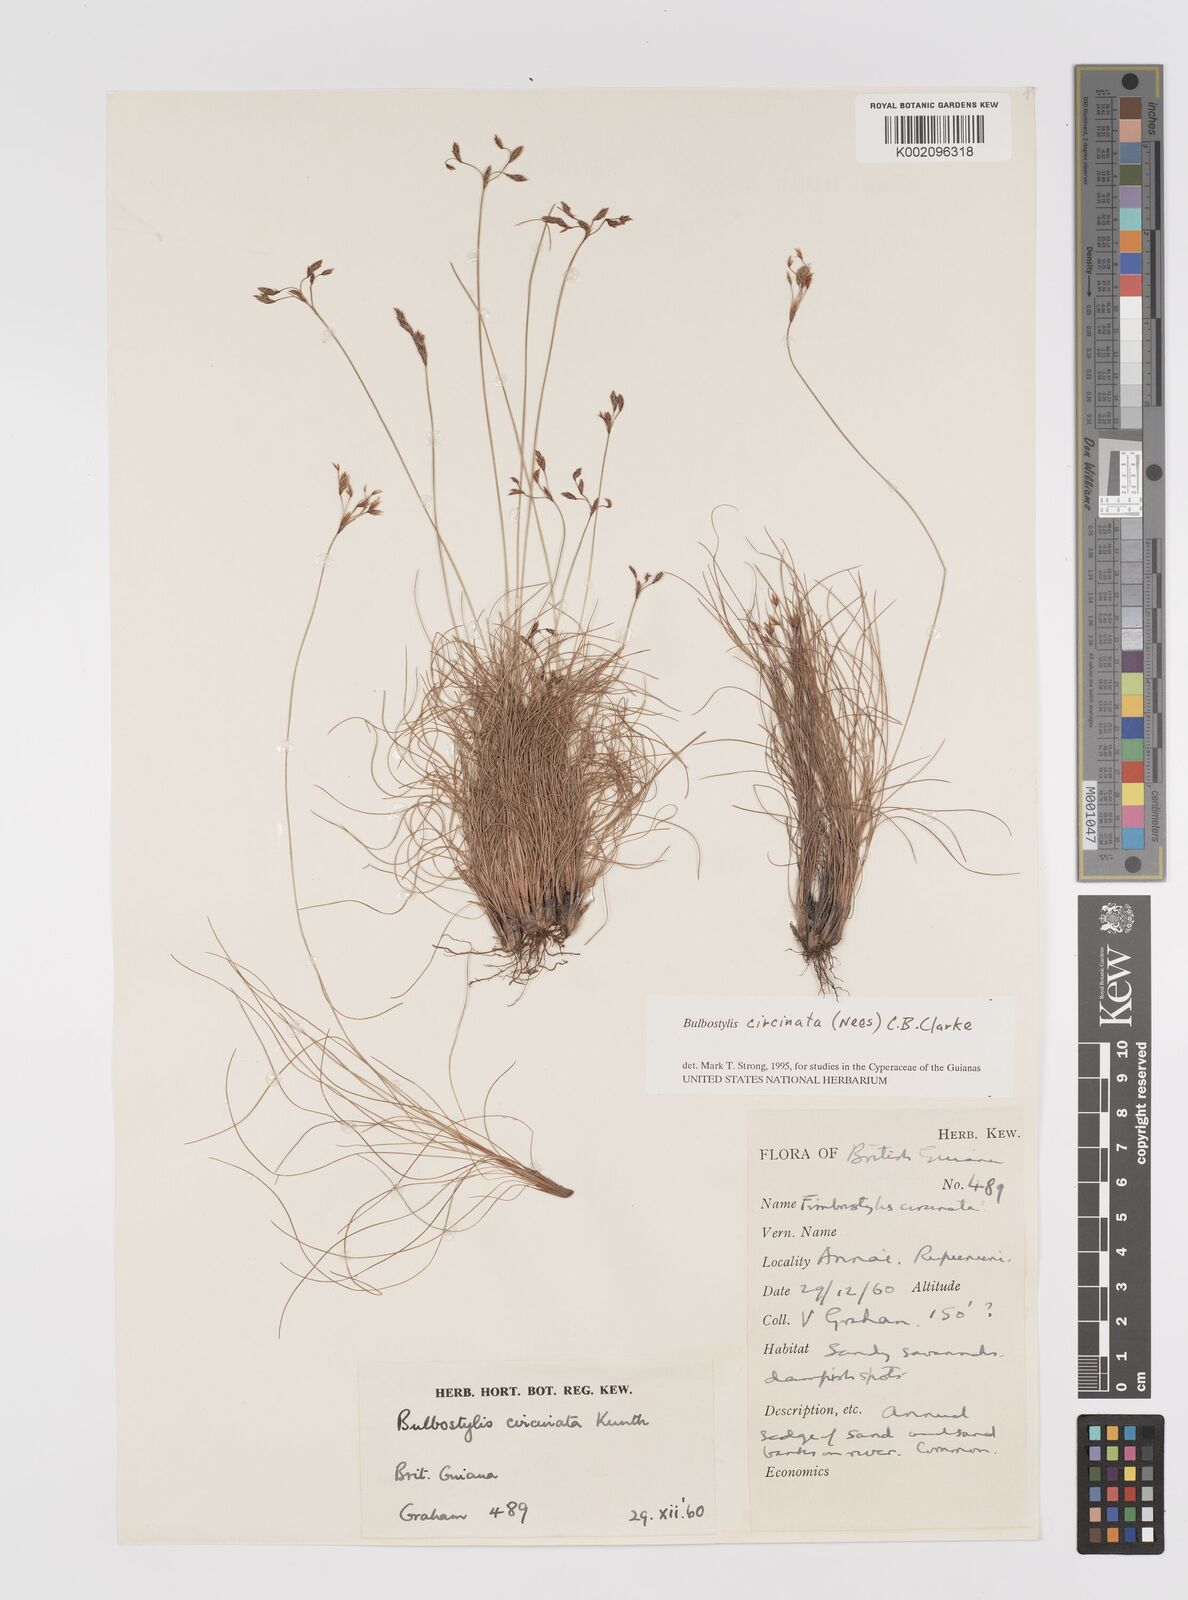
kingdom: Plantae
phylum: Tracheophyta
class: Liliopsida
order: Poales
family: Cyperaceae
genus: Bulbostylis
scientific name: Bulbostylis circinata
